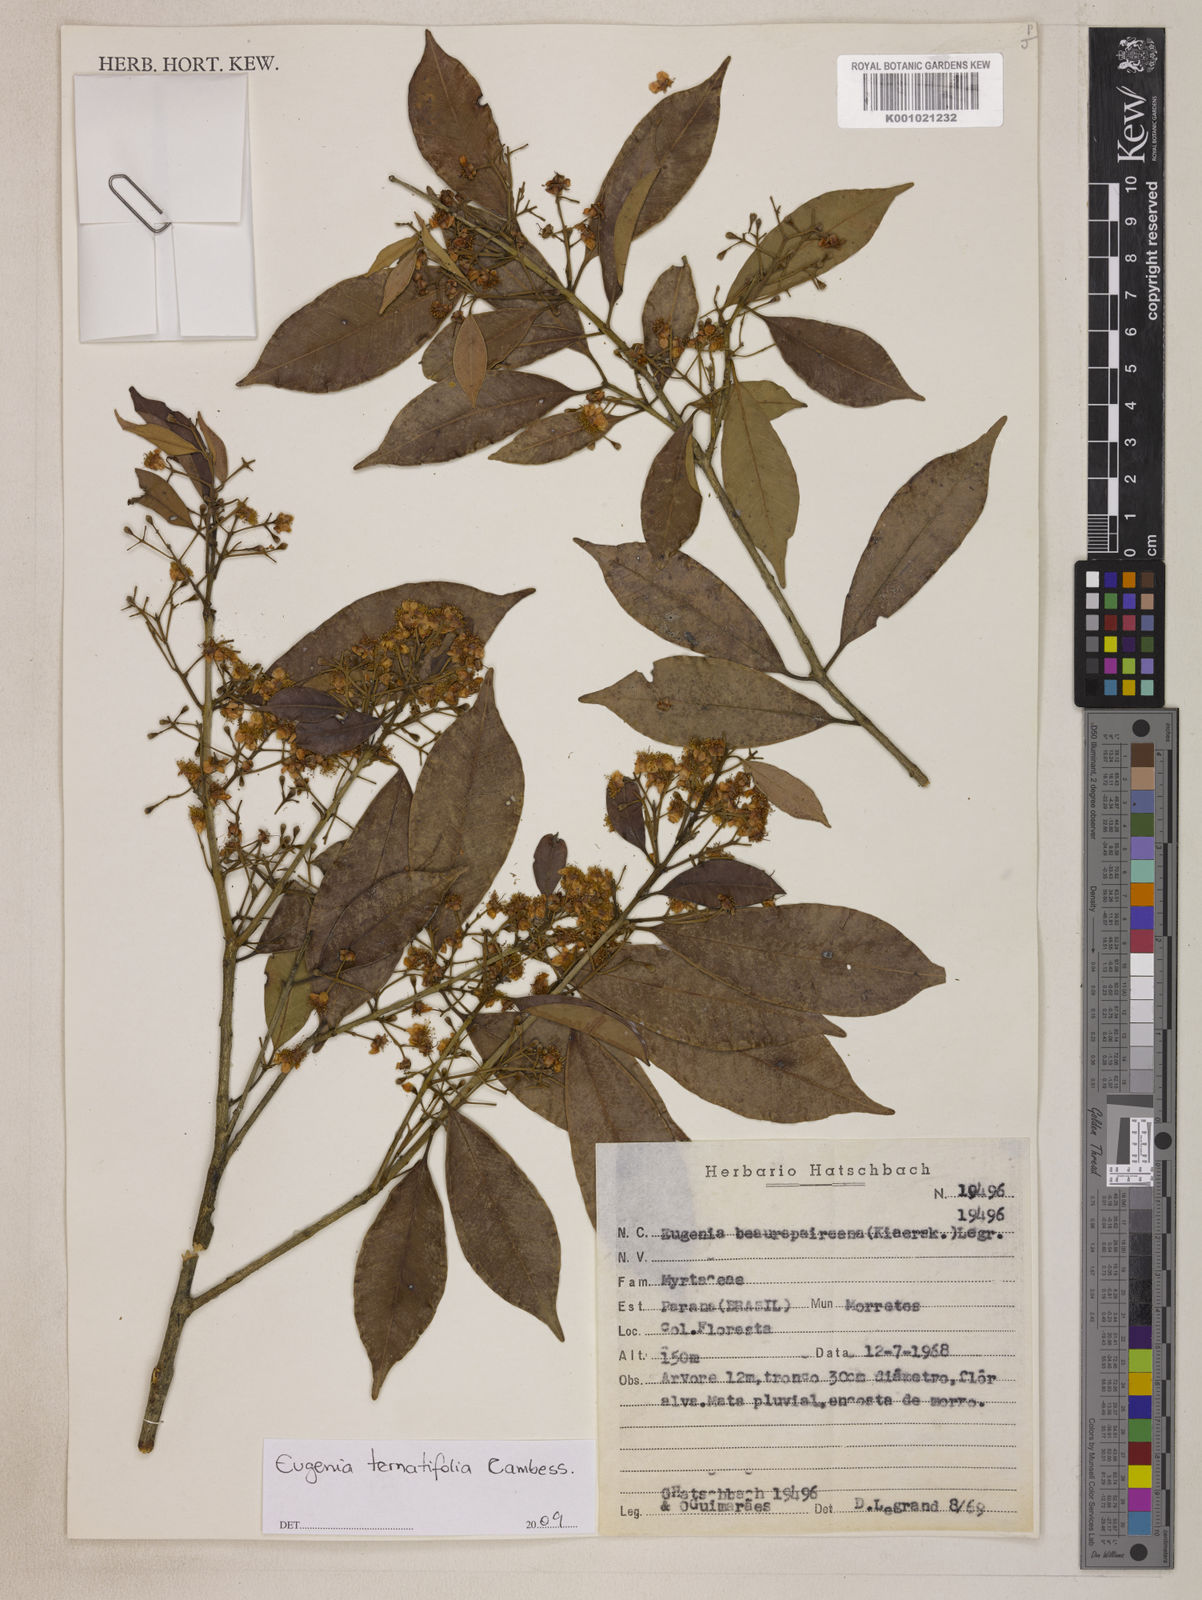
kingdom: Plantae
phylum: Tracheophyta
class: Magnoliopsida
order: Myrtales
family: Myrtaceae
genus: Eugenia
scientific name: Eugenia ternatifolia
